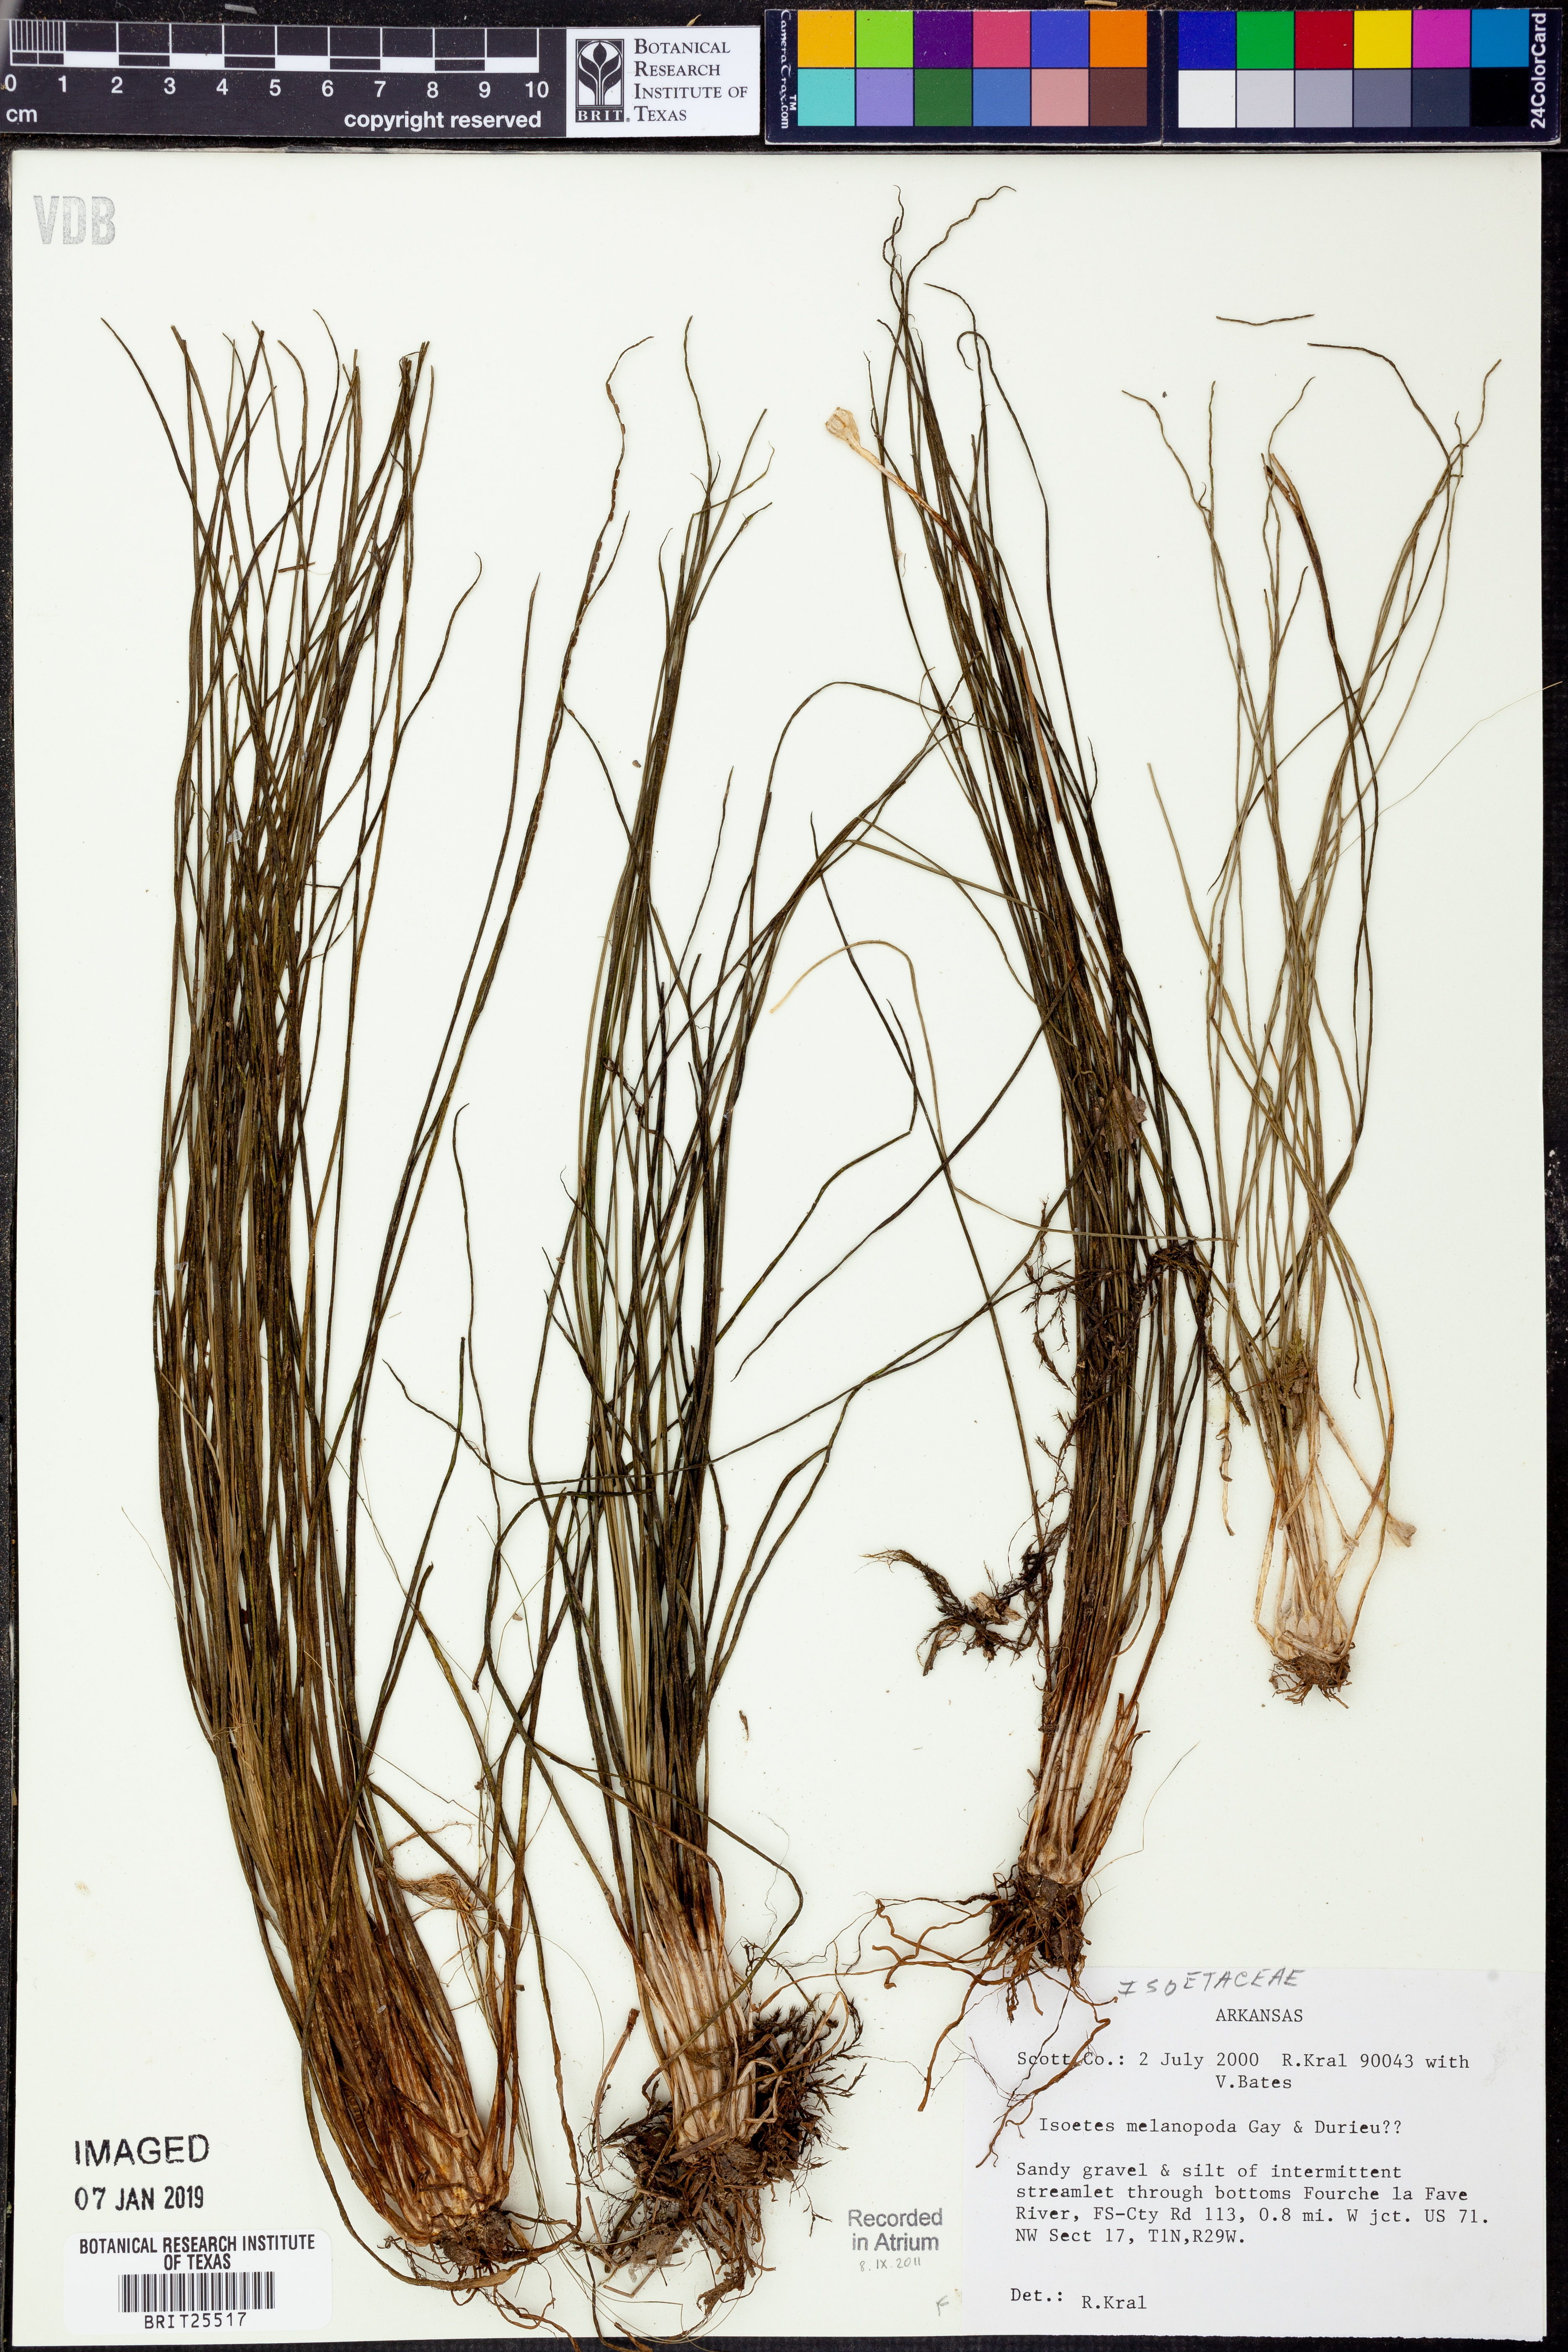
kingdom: Plantae
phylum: Tracheophyta
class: Lycopodiopsida
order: Isoetales
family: Isoetaceae
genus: Isoetes
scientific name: Isoetes melanopoda
